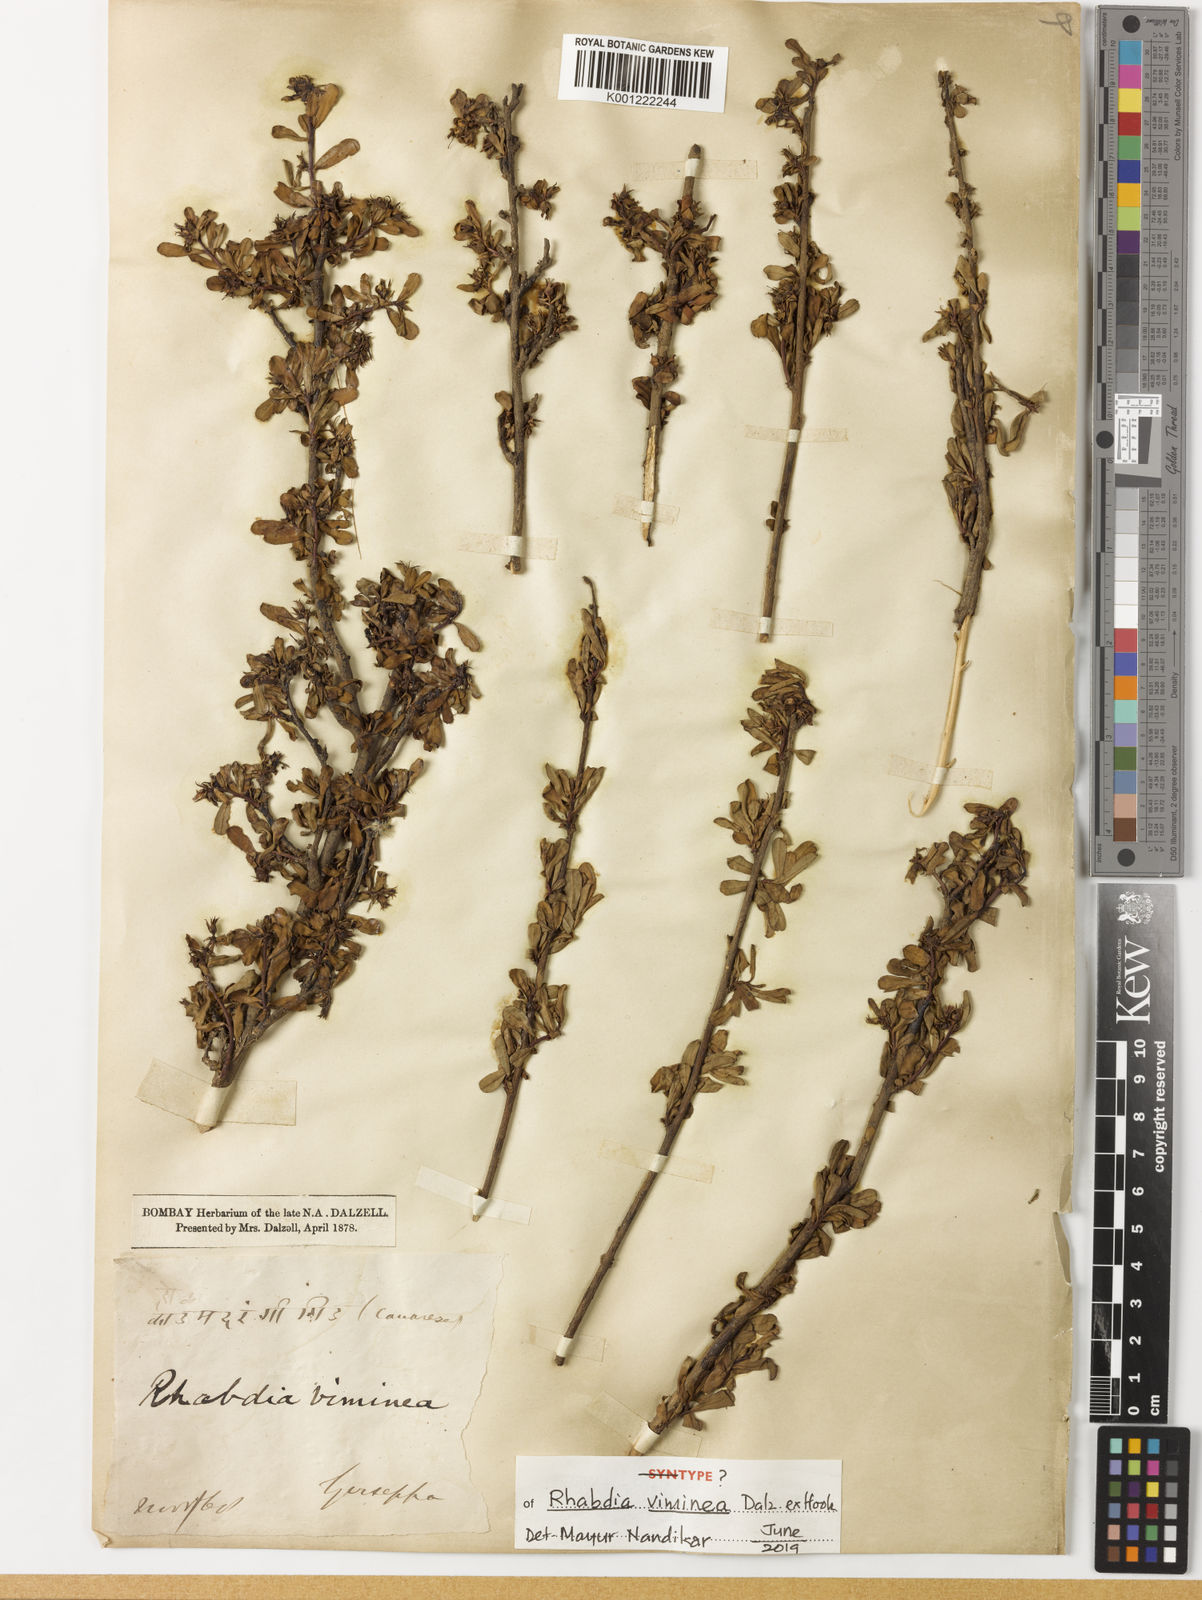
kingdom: Plantae
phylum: Tracheophyta
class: Magnoliopsida
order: Boraginales
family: Ehretiaceae
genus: Ehretia
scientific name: Ehretia aquatica
